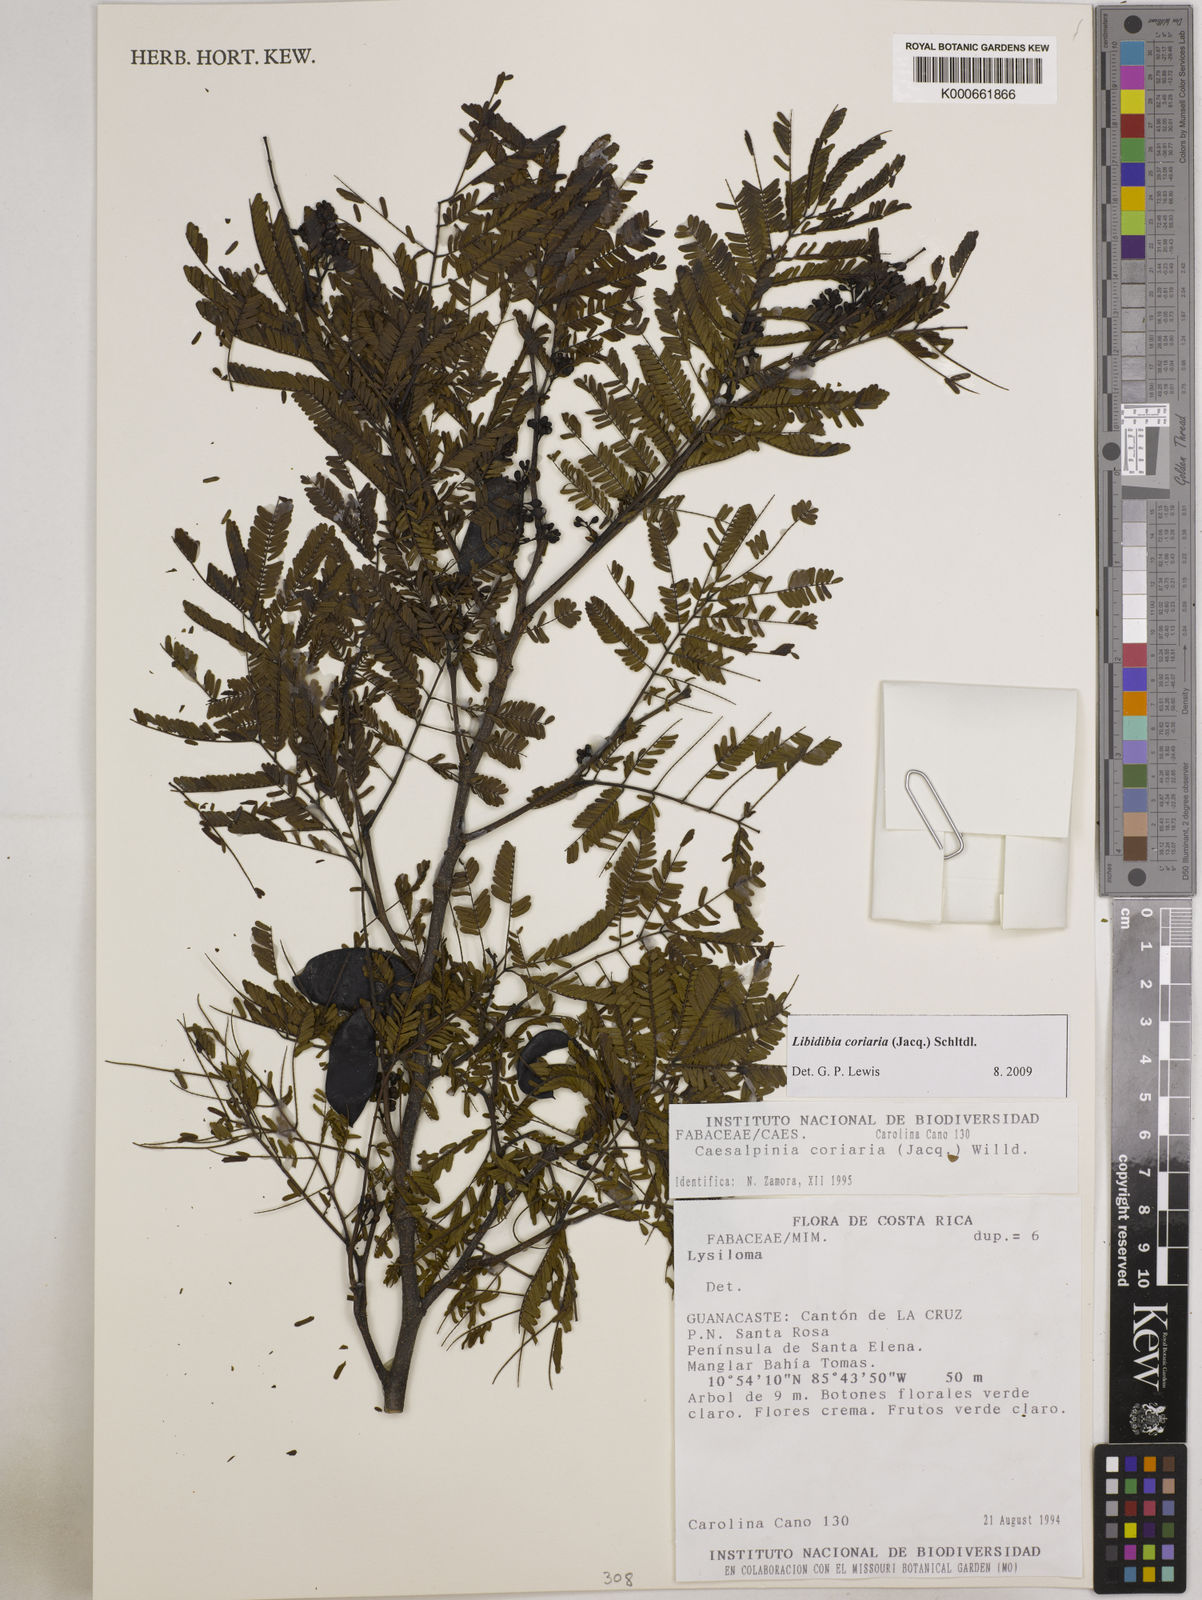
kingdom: Plantae
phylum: Tracheophyta
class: Magnoliopsida
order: Fabales
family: Fabaceae
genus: Libidibia
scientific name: Libidibia coriaria
